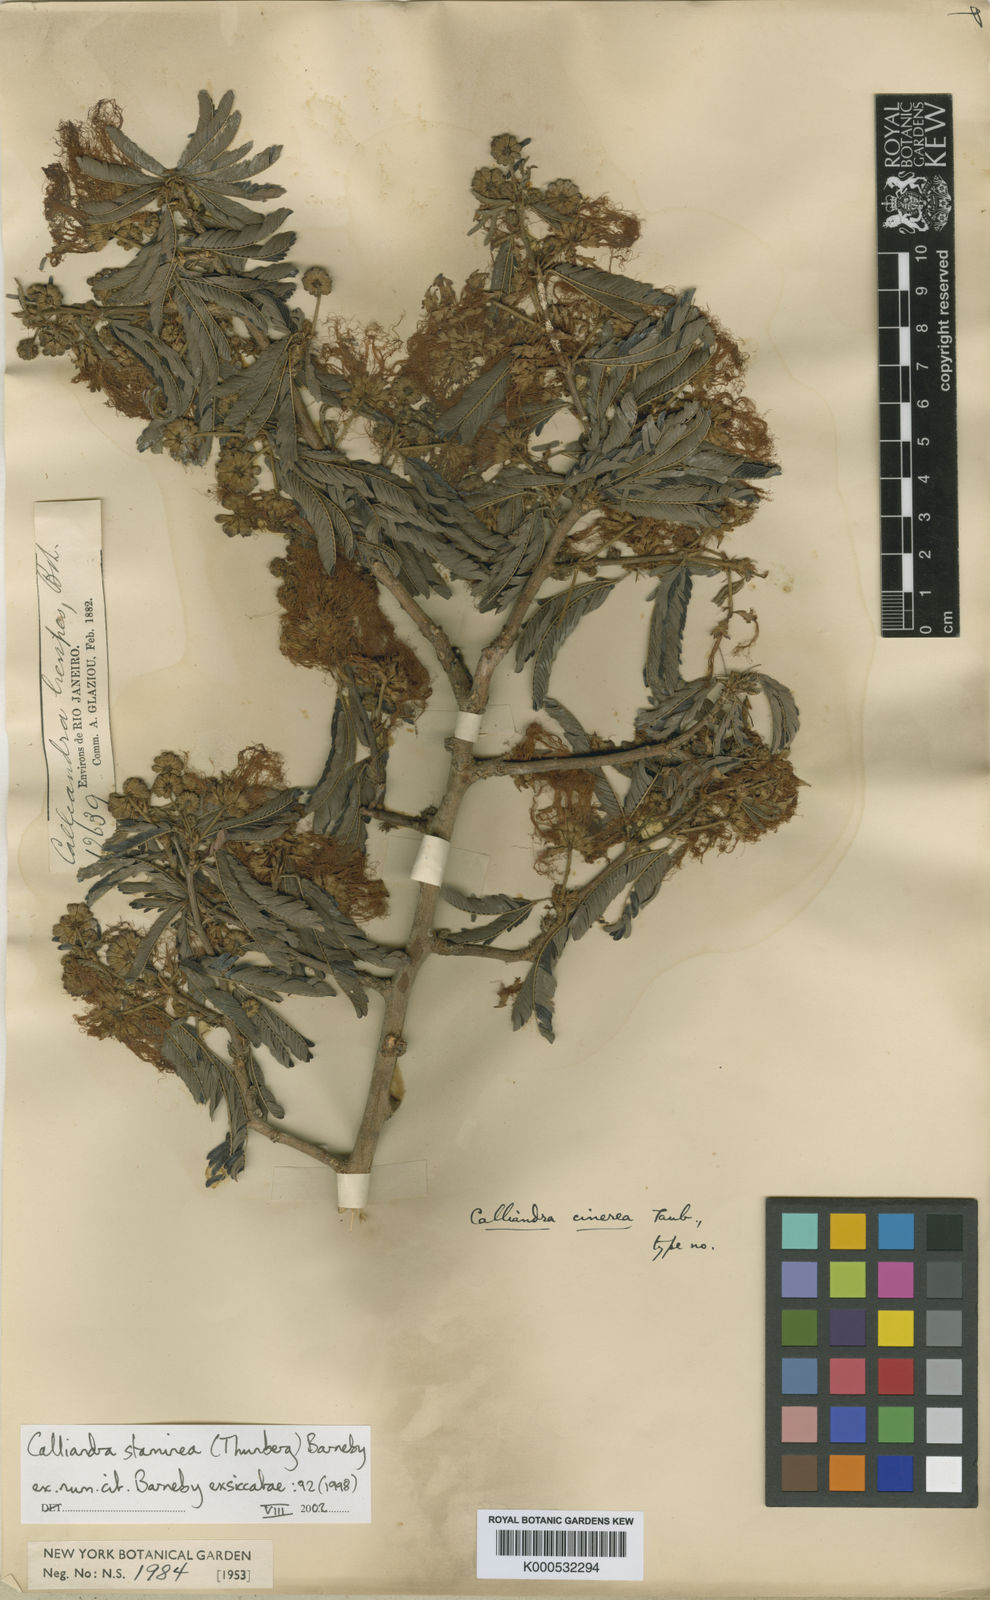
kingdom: Plantae
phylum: Tracheophyta
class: Magnoliopsida
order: Fabales
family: Fabaceae
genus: Calliandra
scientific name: Calliandra staminea
